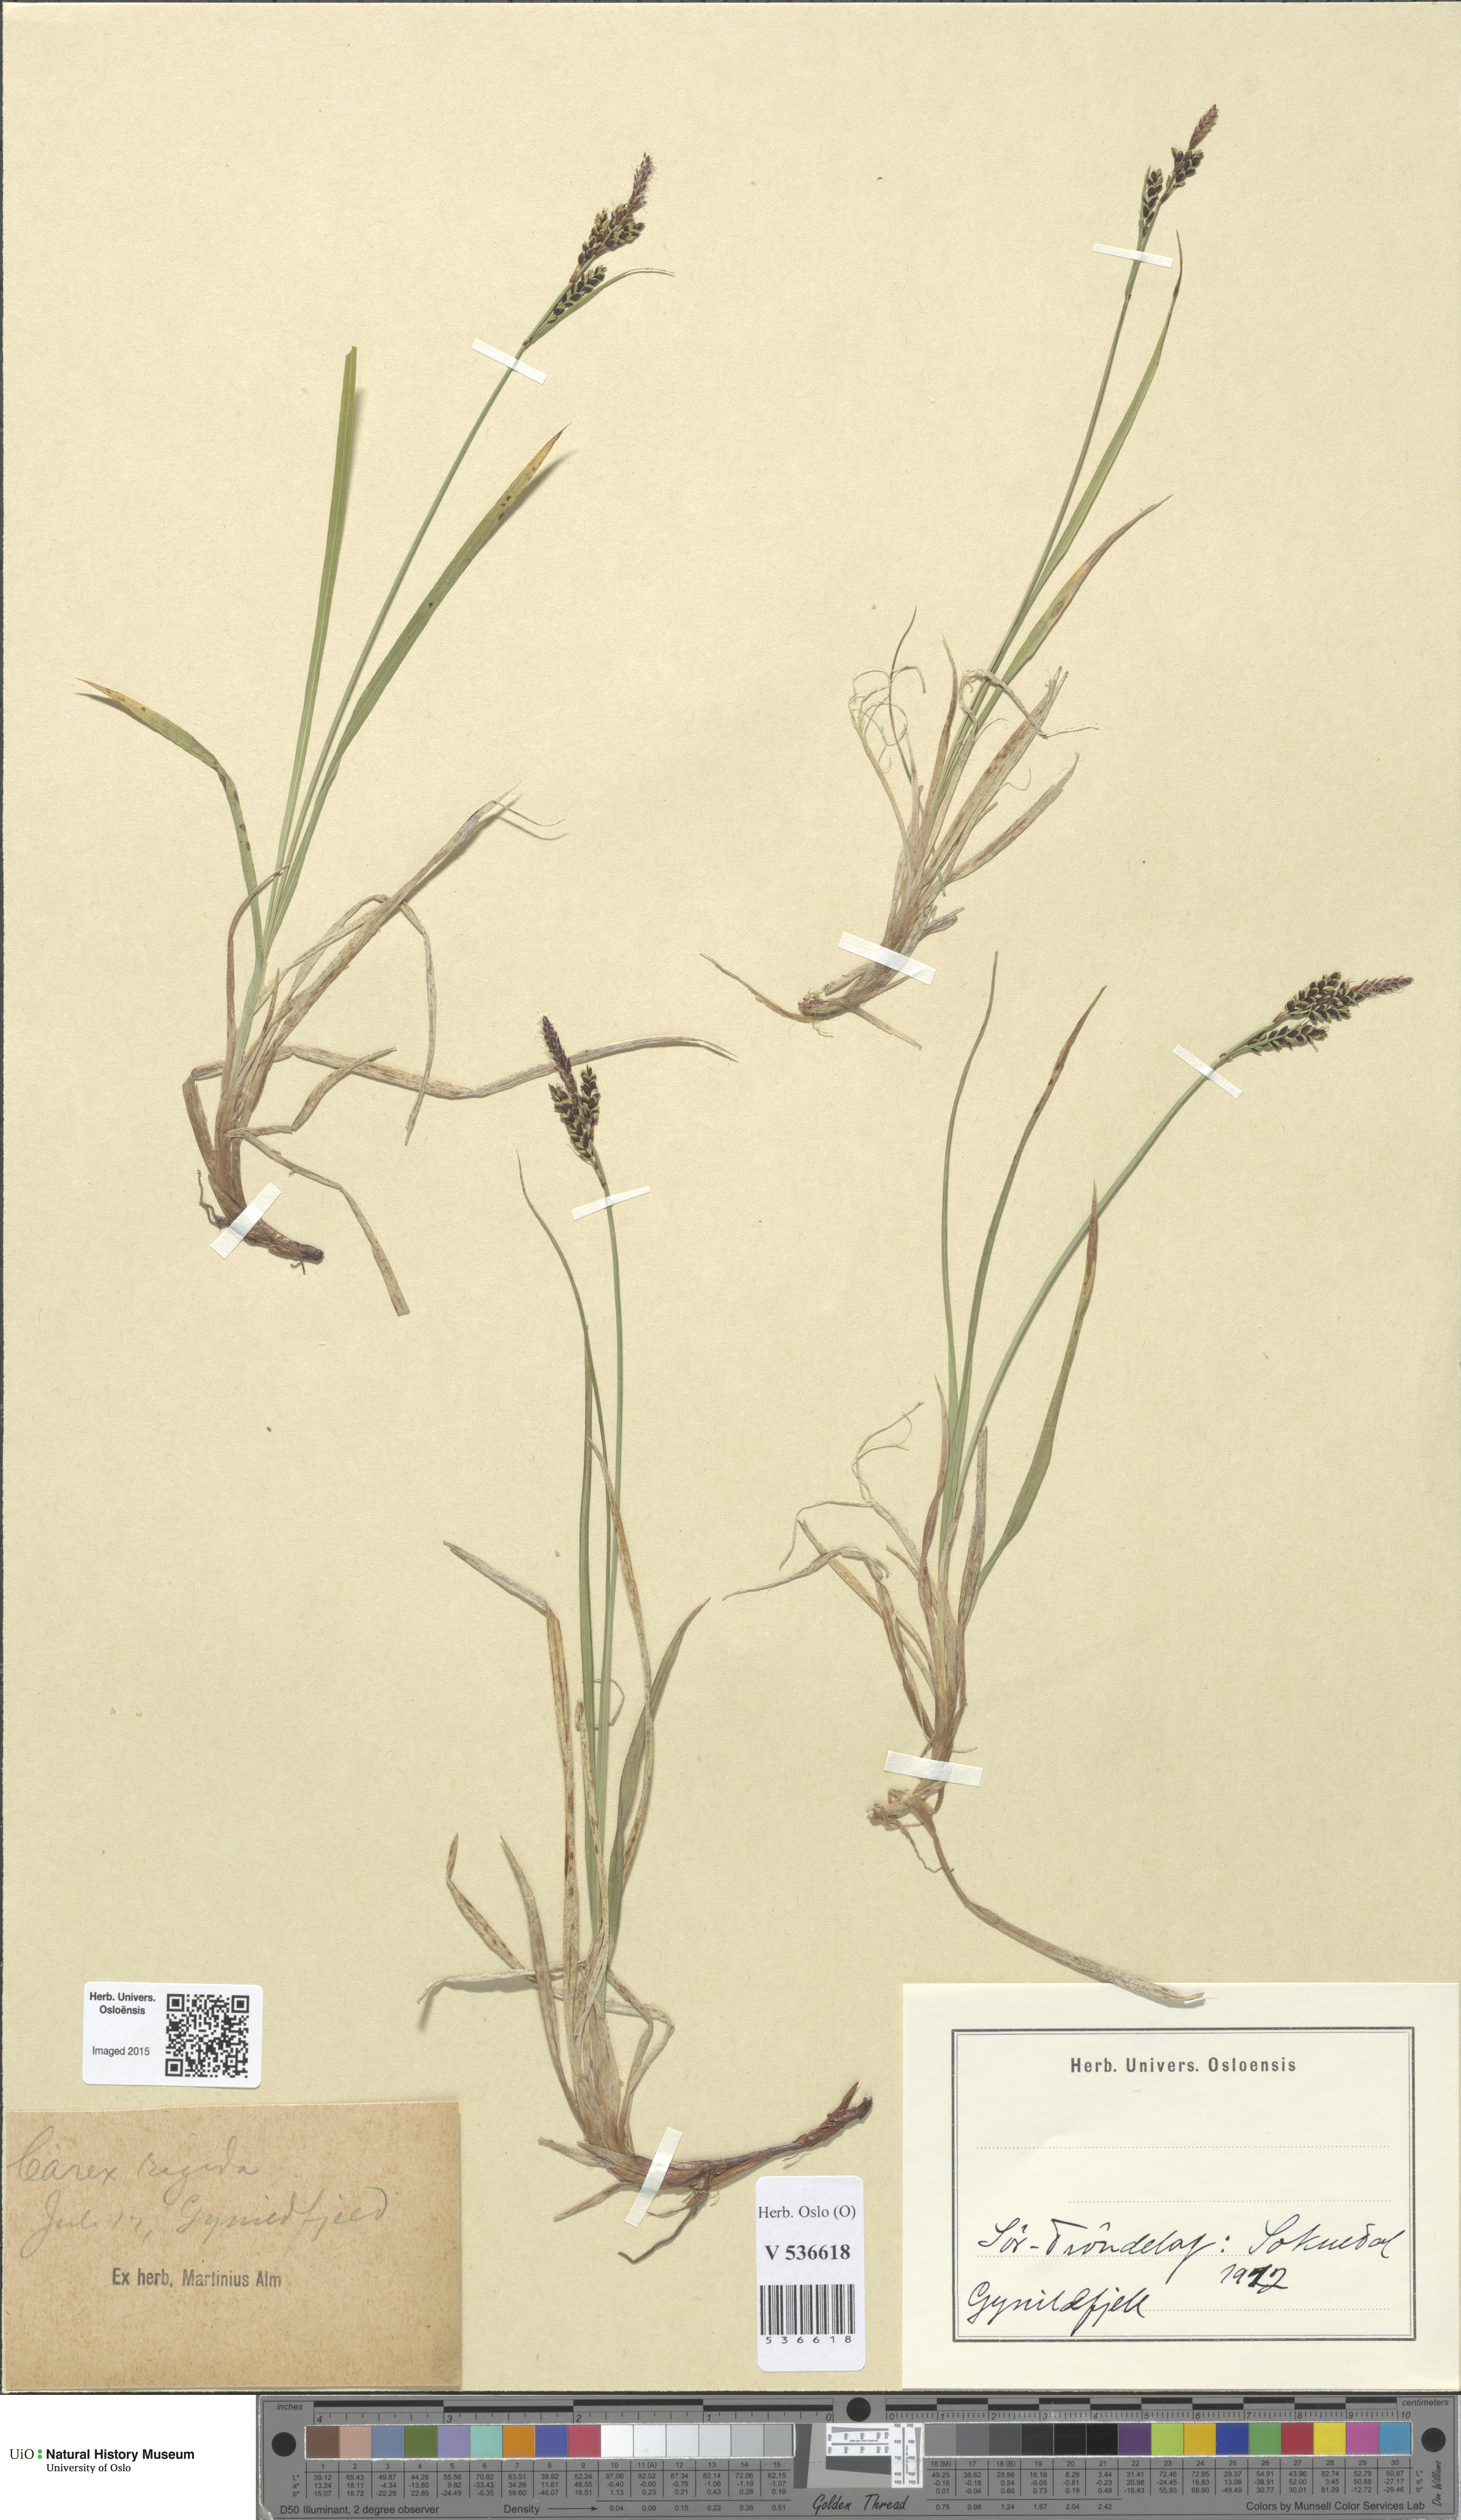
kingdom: Plantae
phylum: Tracheophyta
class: Liliopsida
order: Poales
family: Cyperaceae
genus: Carex
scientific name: Carex dacica
